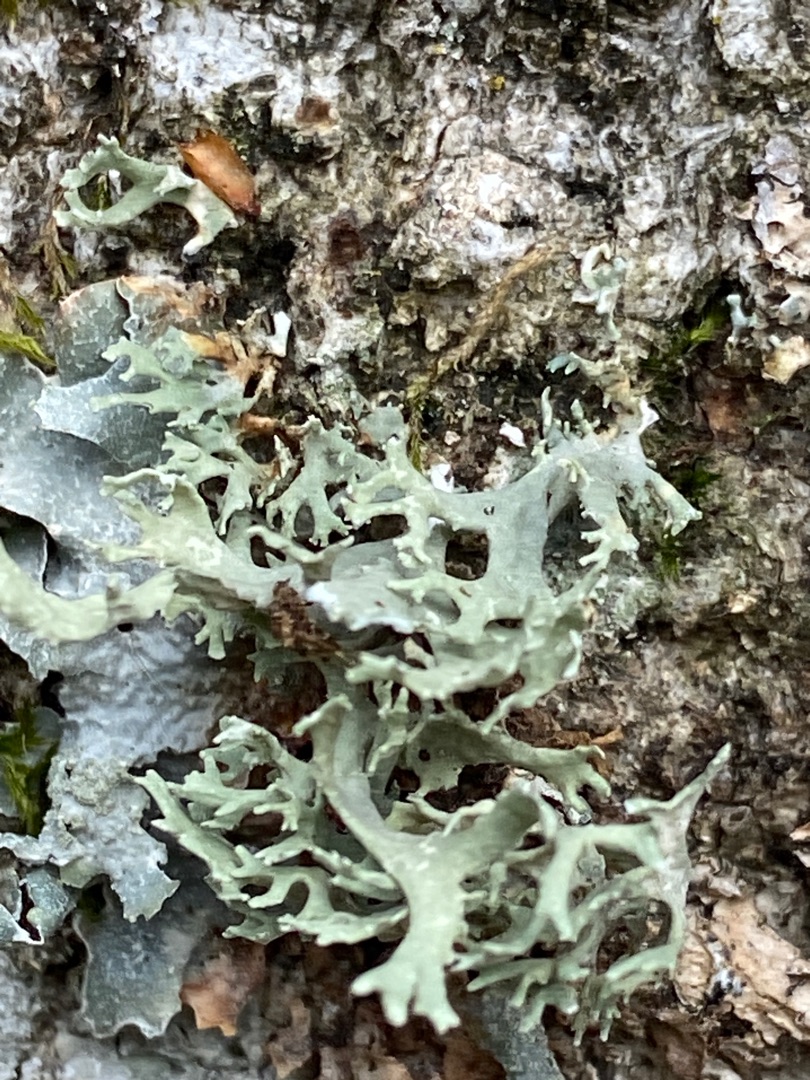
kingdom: Fungi
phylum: Ascomycota
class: Lecanoromycetes
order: Lecanorales
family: Parmeliaceae
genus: Evernia
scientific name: Evernia prunastri
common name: Almindelig slåenlav
